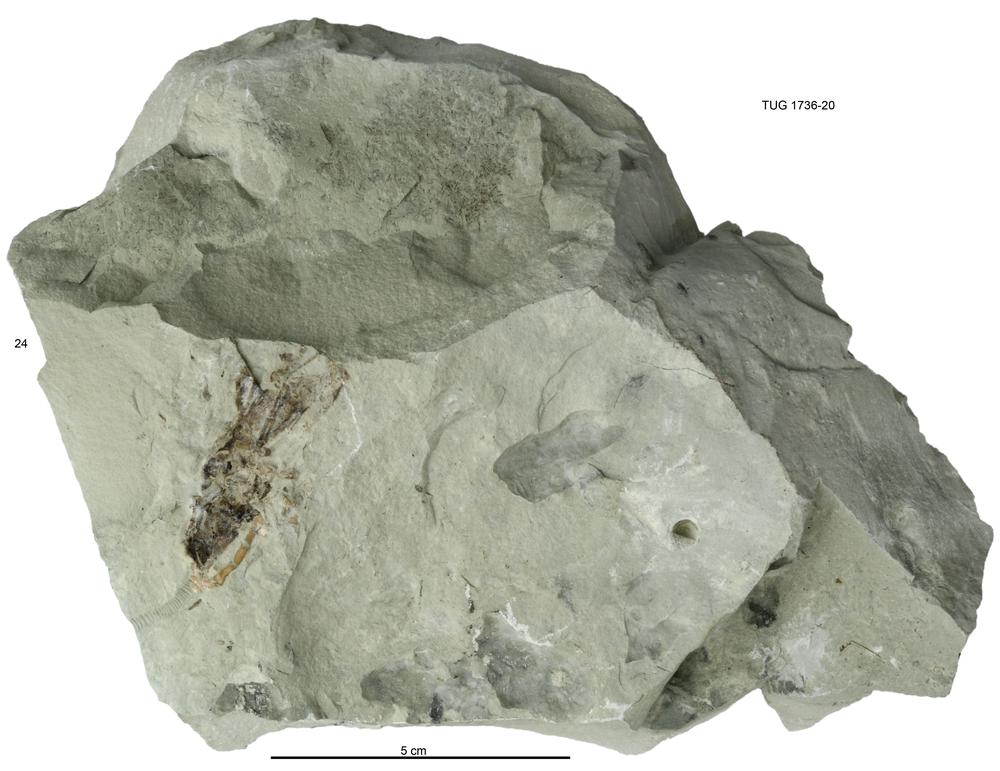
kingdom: Animalia
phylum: Echinodermata
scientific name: Echinodermata
